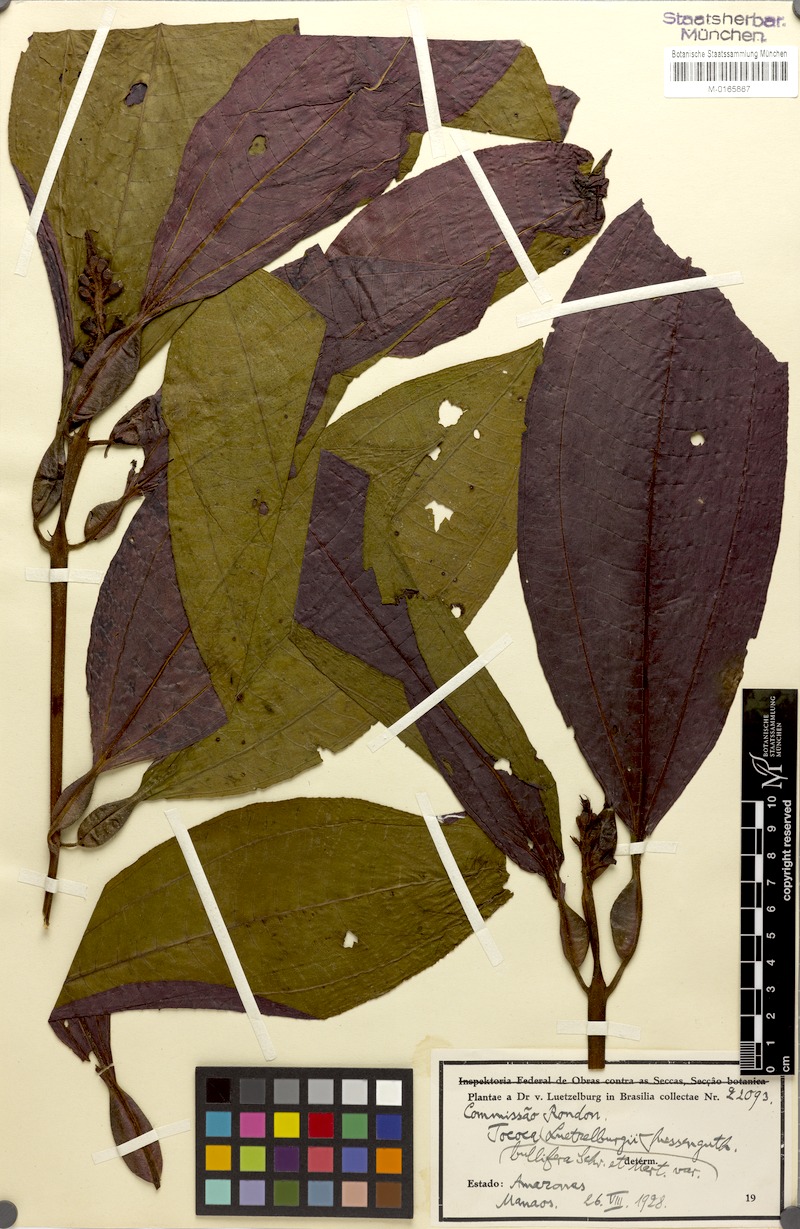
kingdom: Plantae
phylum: Tracheophyta
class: Magnoliopsida
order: Myrtales
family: Melastomataceae
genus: Miconia
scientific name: Miconia bullifera
